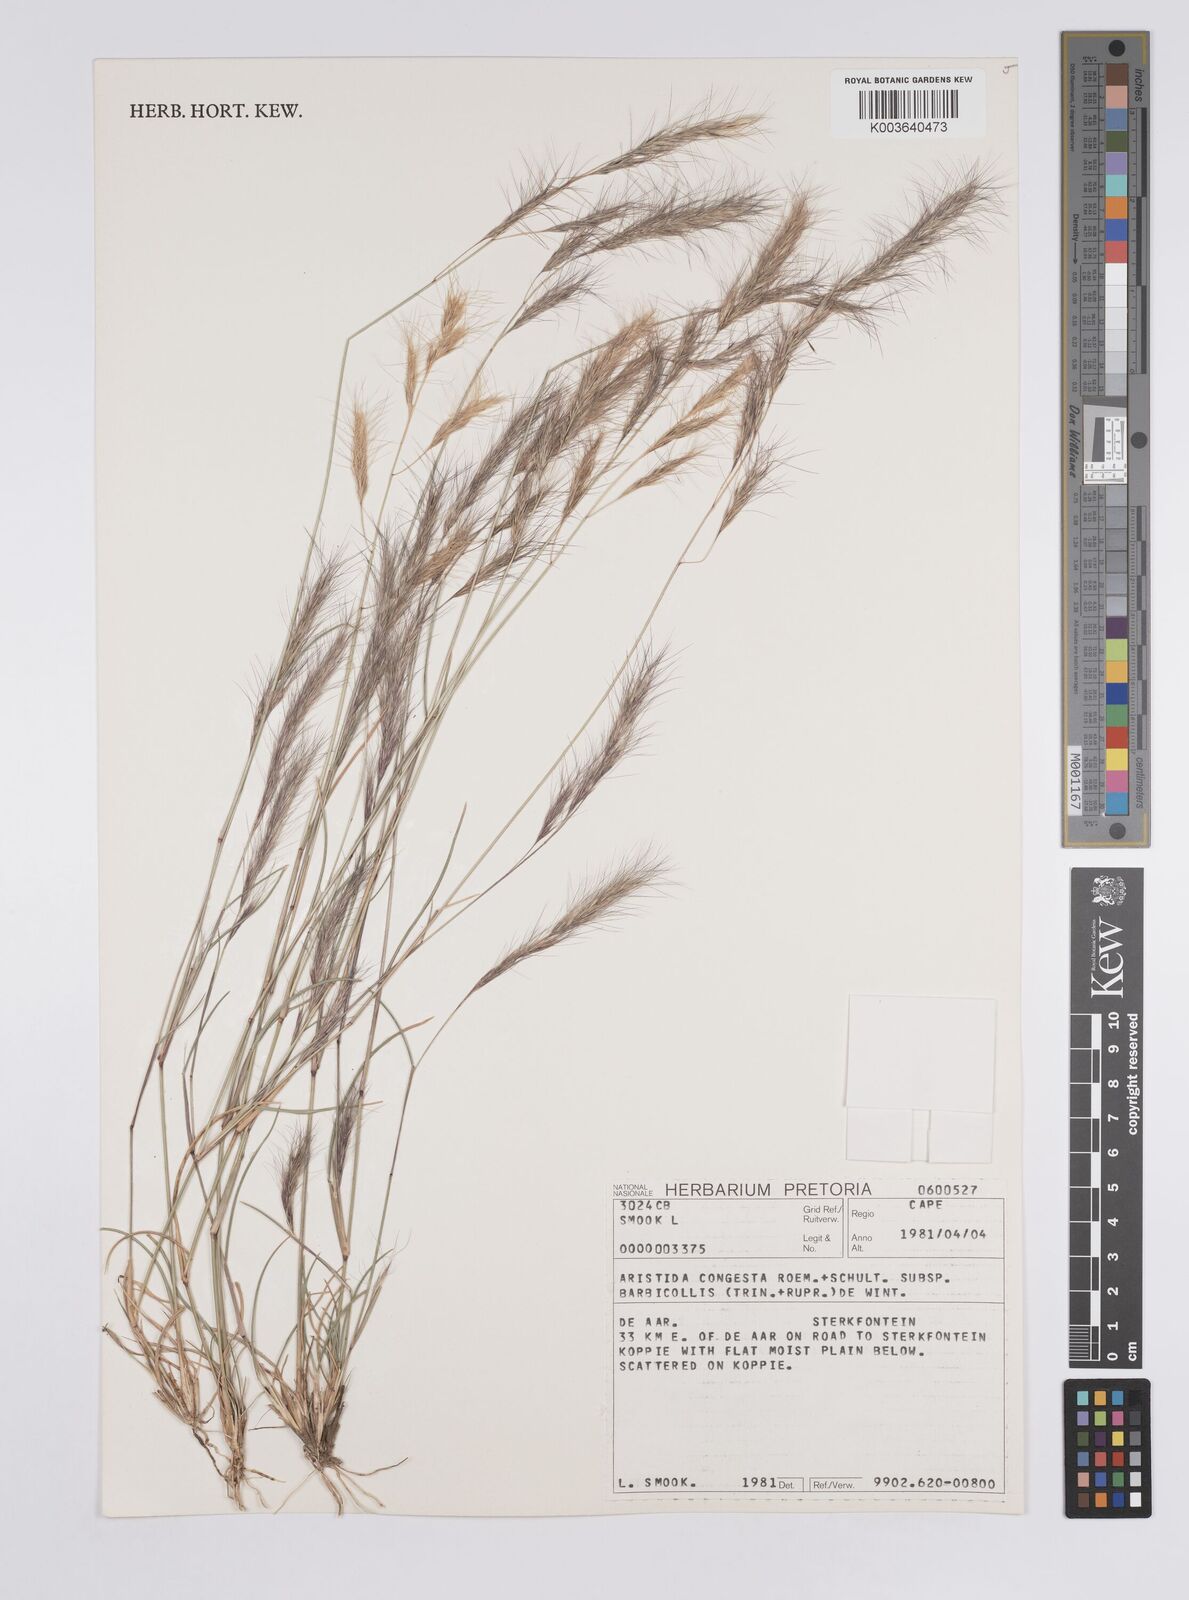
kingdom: Plantae
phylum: Tracheophyta
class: Liliopsida
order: Poales
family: Poaceae
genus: Aristida
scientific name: Aristida barbicollis
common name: Spreading prickle grass
